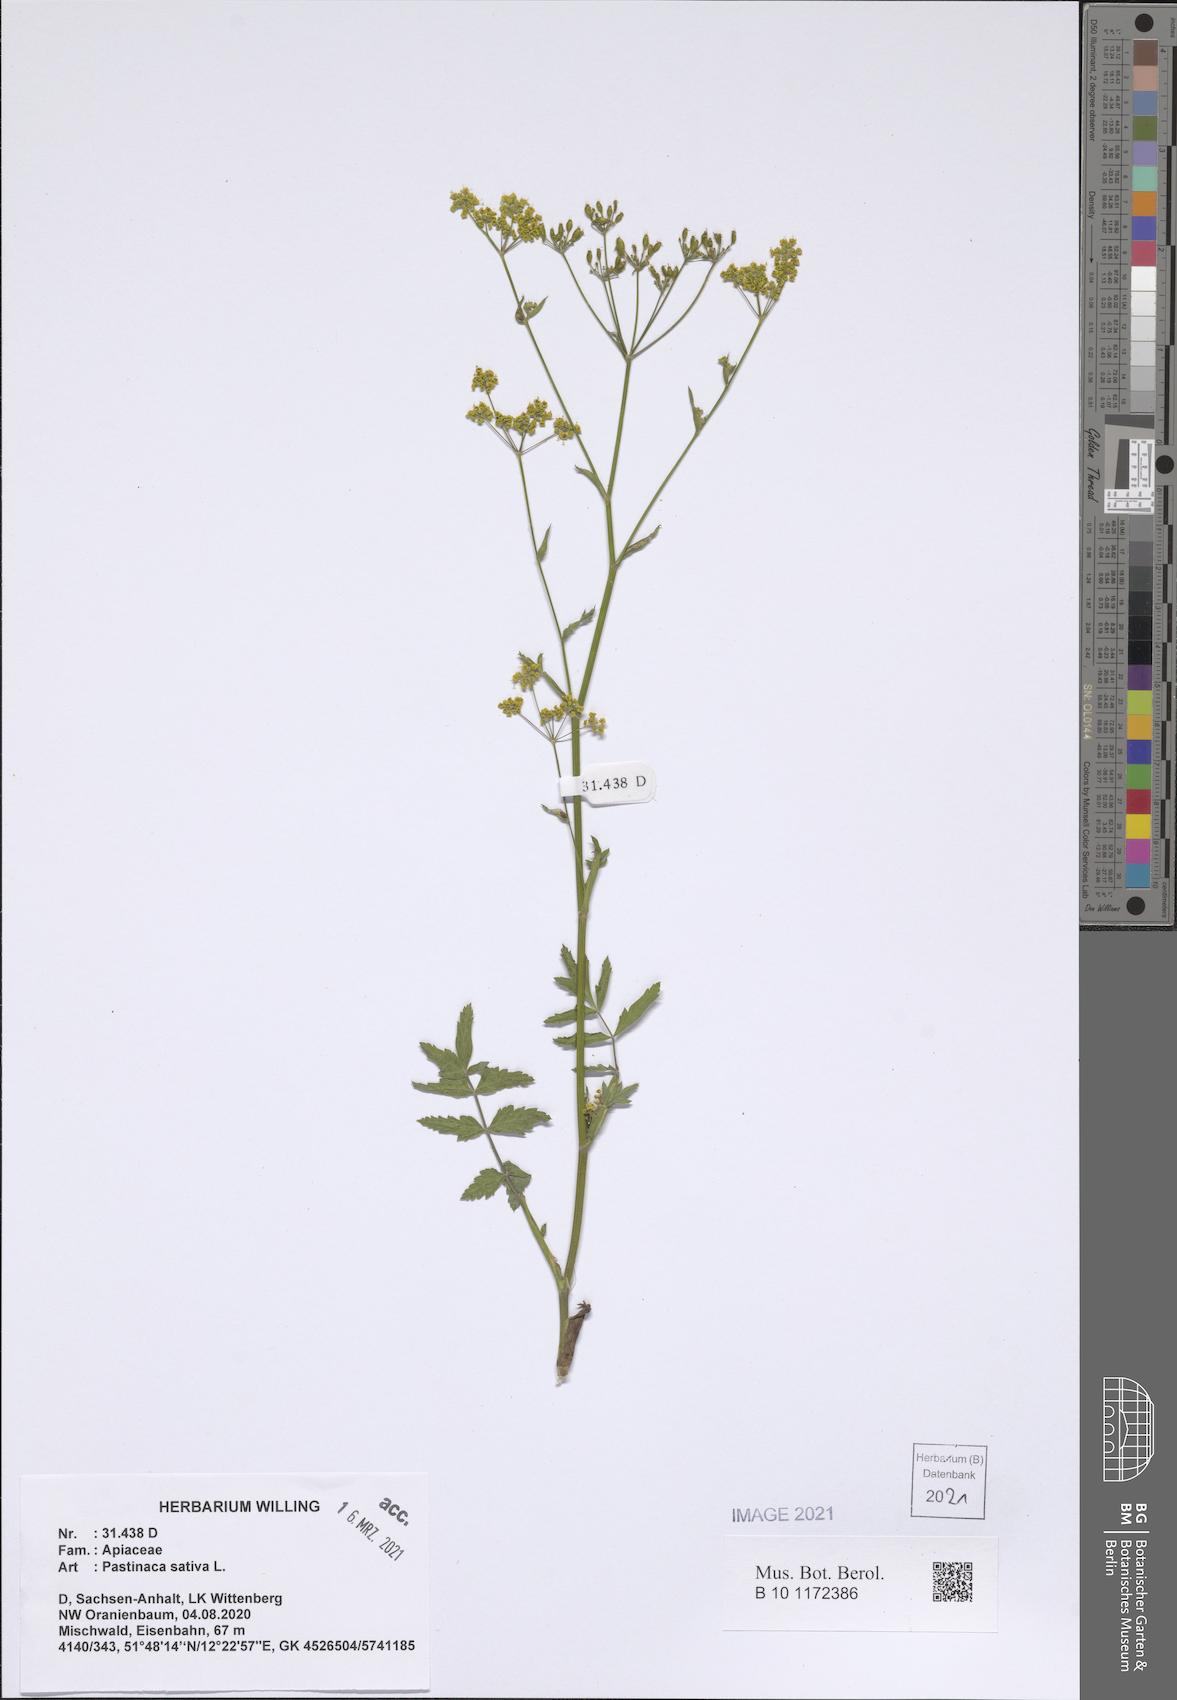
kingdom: Plantae
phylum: Tracheophyta
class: Magnoliopsida
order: Apiales
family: Apiaceae
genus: Pastinaca
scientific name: Pastinaca sativa
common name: Wild parsnip
